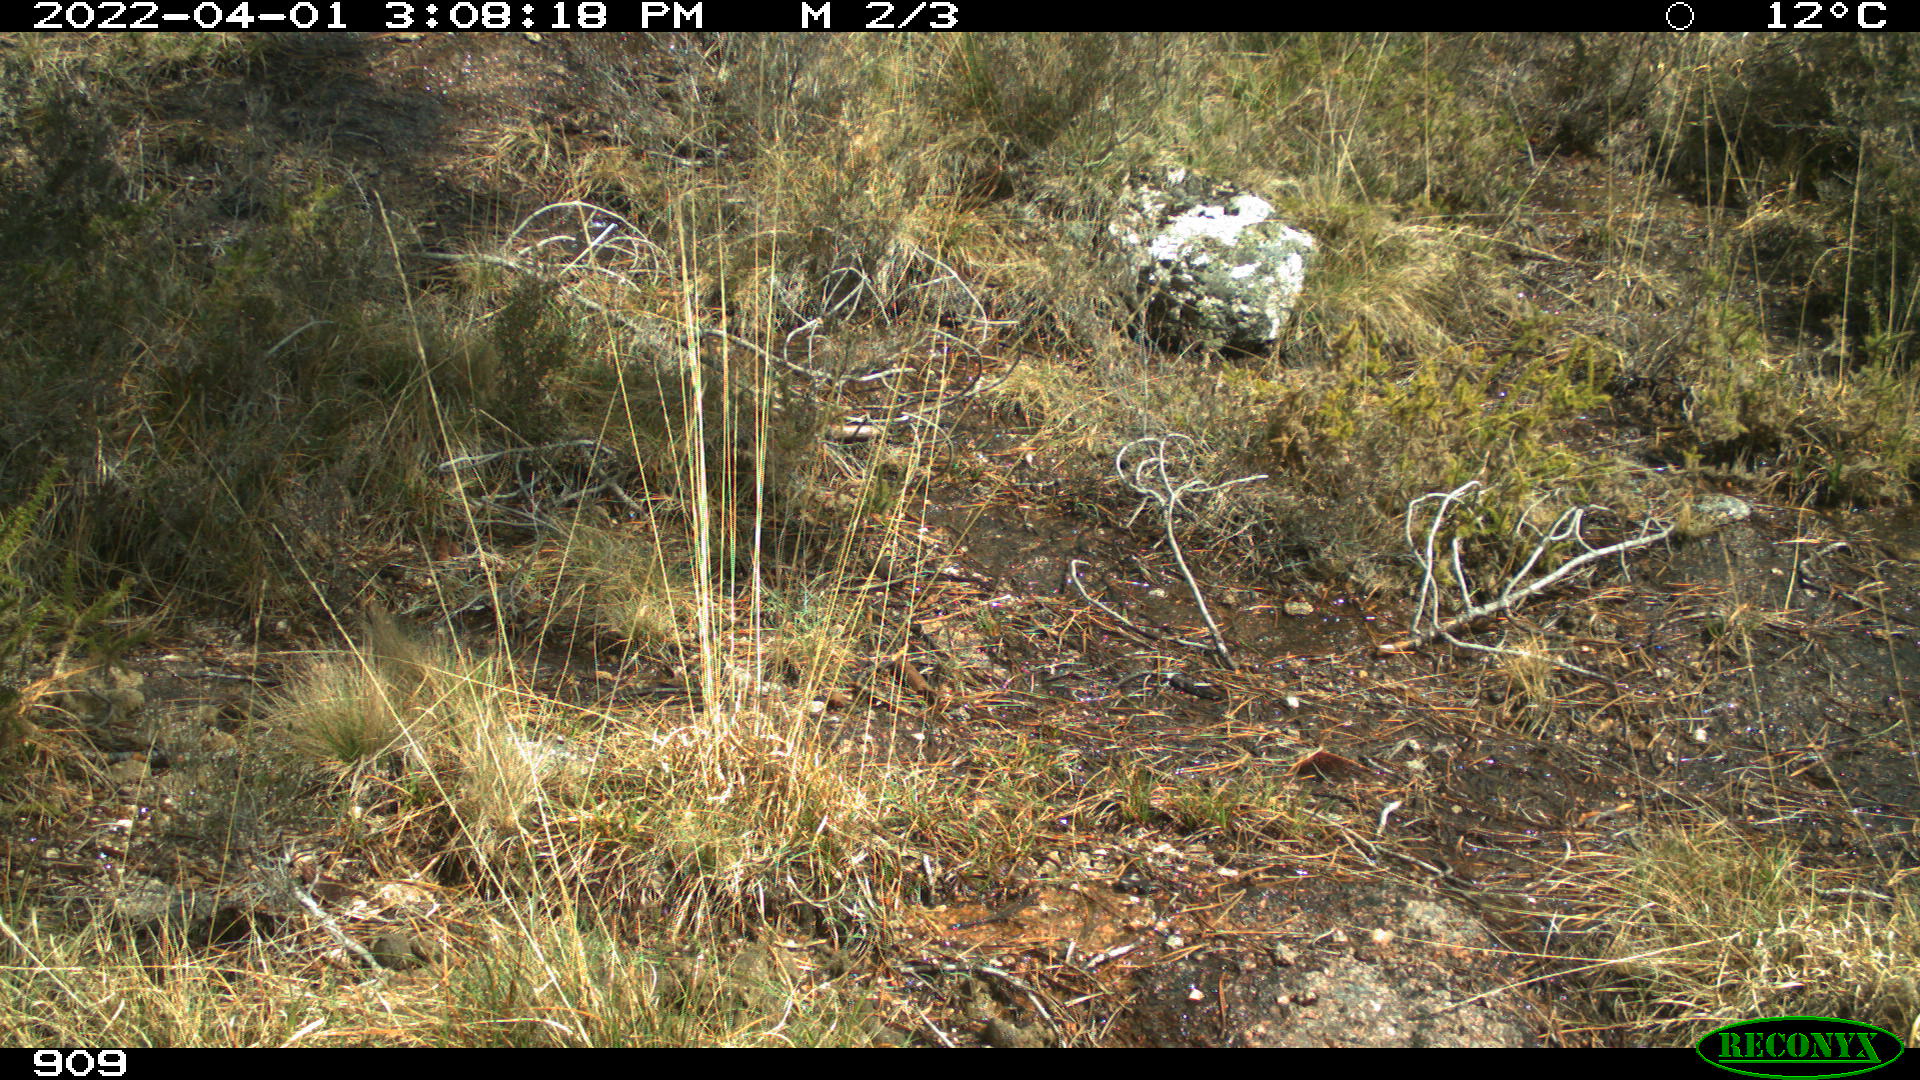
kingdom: Animalia
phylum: Chordata
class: Mammalia
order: Artiodactyla
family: Cervidae
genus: Capreolus
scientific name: Capreolus capreolus
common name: Western roe deer
